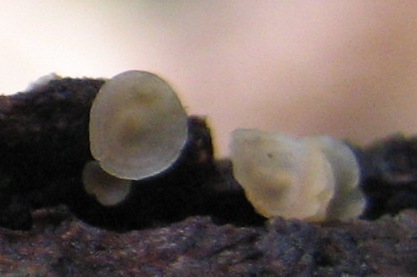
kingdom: Fungi
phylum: Ascomycota
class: Orbiliomycetes
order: Orbiliales
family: Orbiliaceae
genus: Hyalorbilia
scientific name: Hyalorbilia
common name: voksskive
